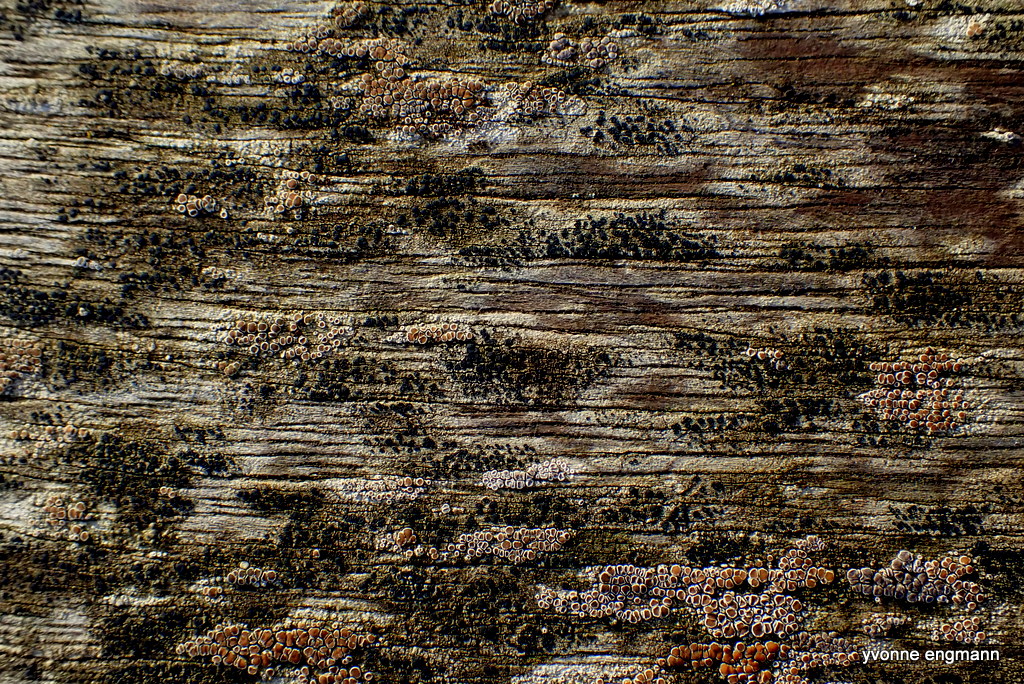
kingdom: Fungi
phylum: Ascomycota
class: Lecanoromycetes
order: Lecanorales
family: Lecanoraceae
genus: Lecidella
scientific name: Lecidella elaeochroma
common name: grågrøn skivelav
